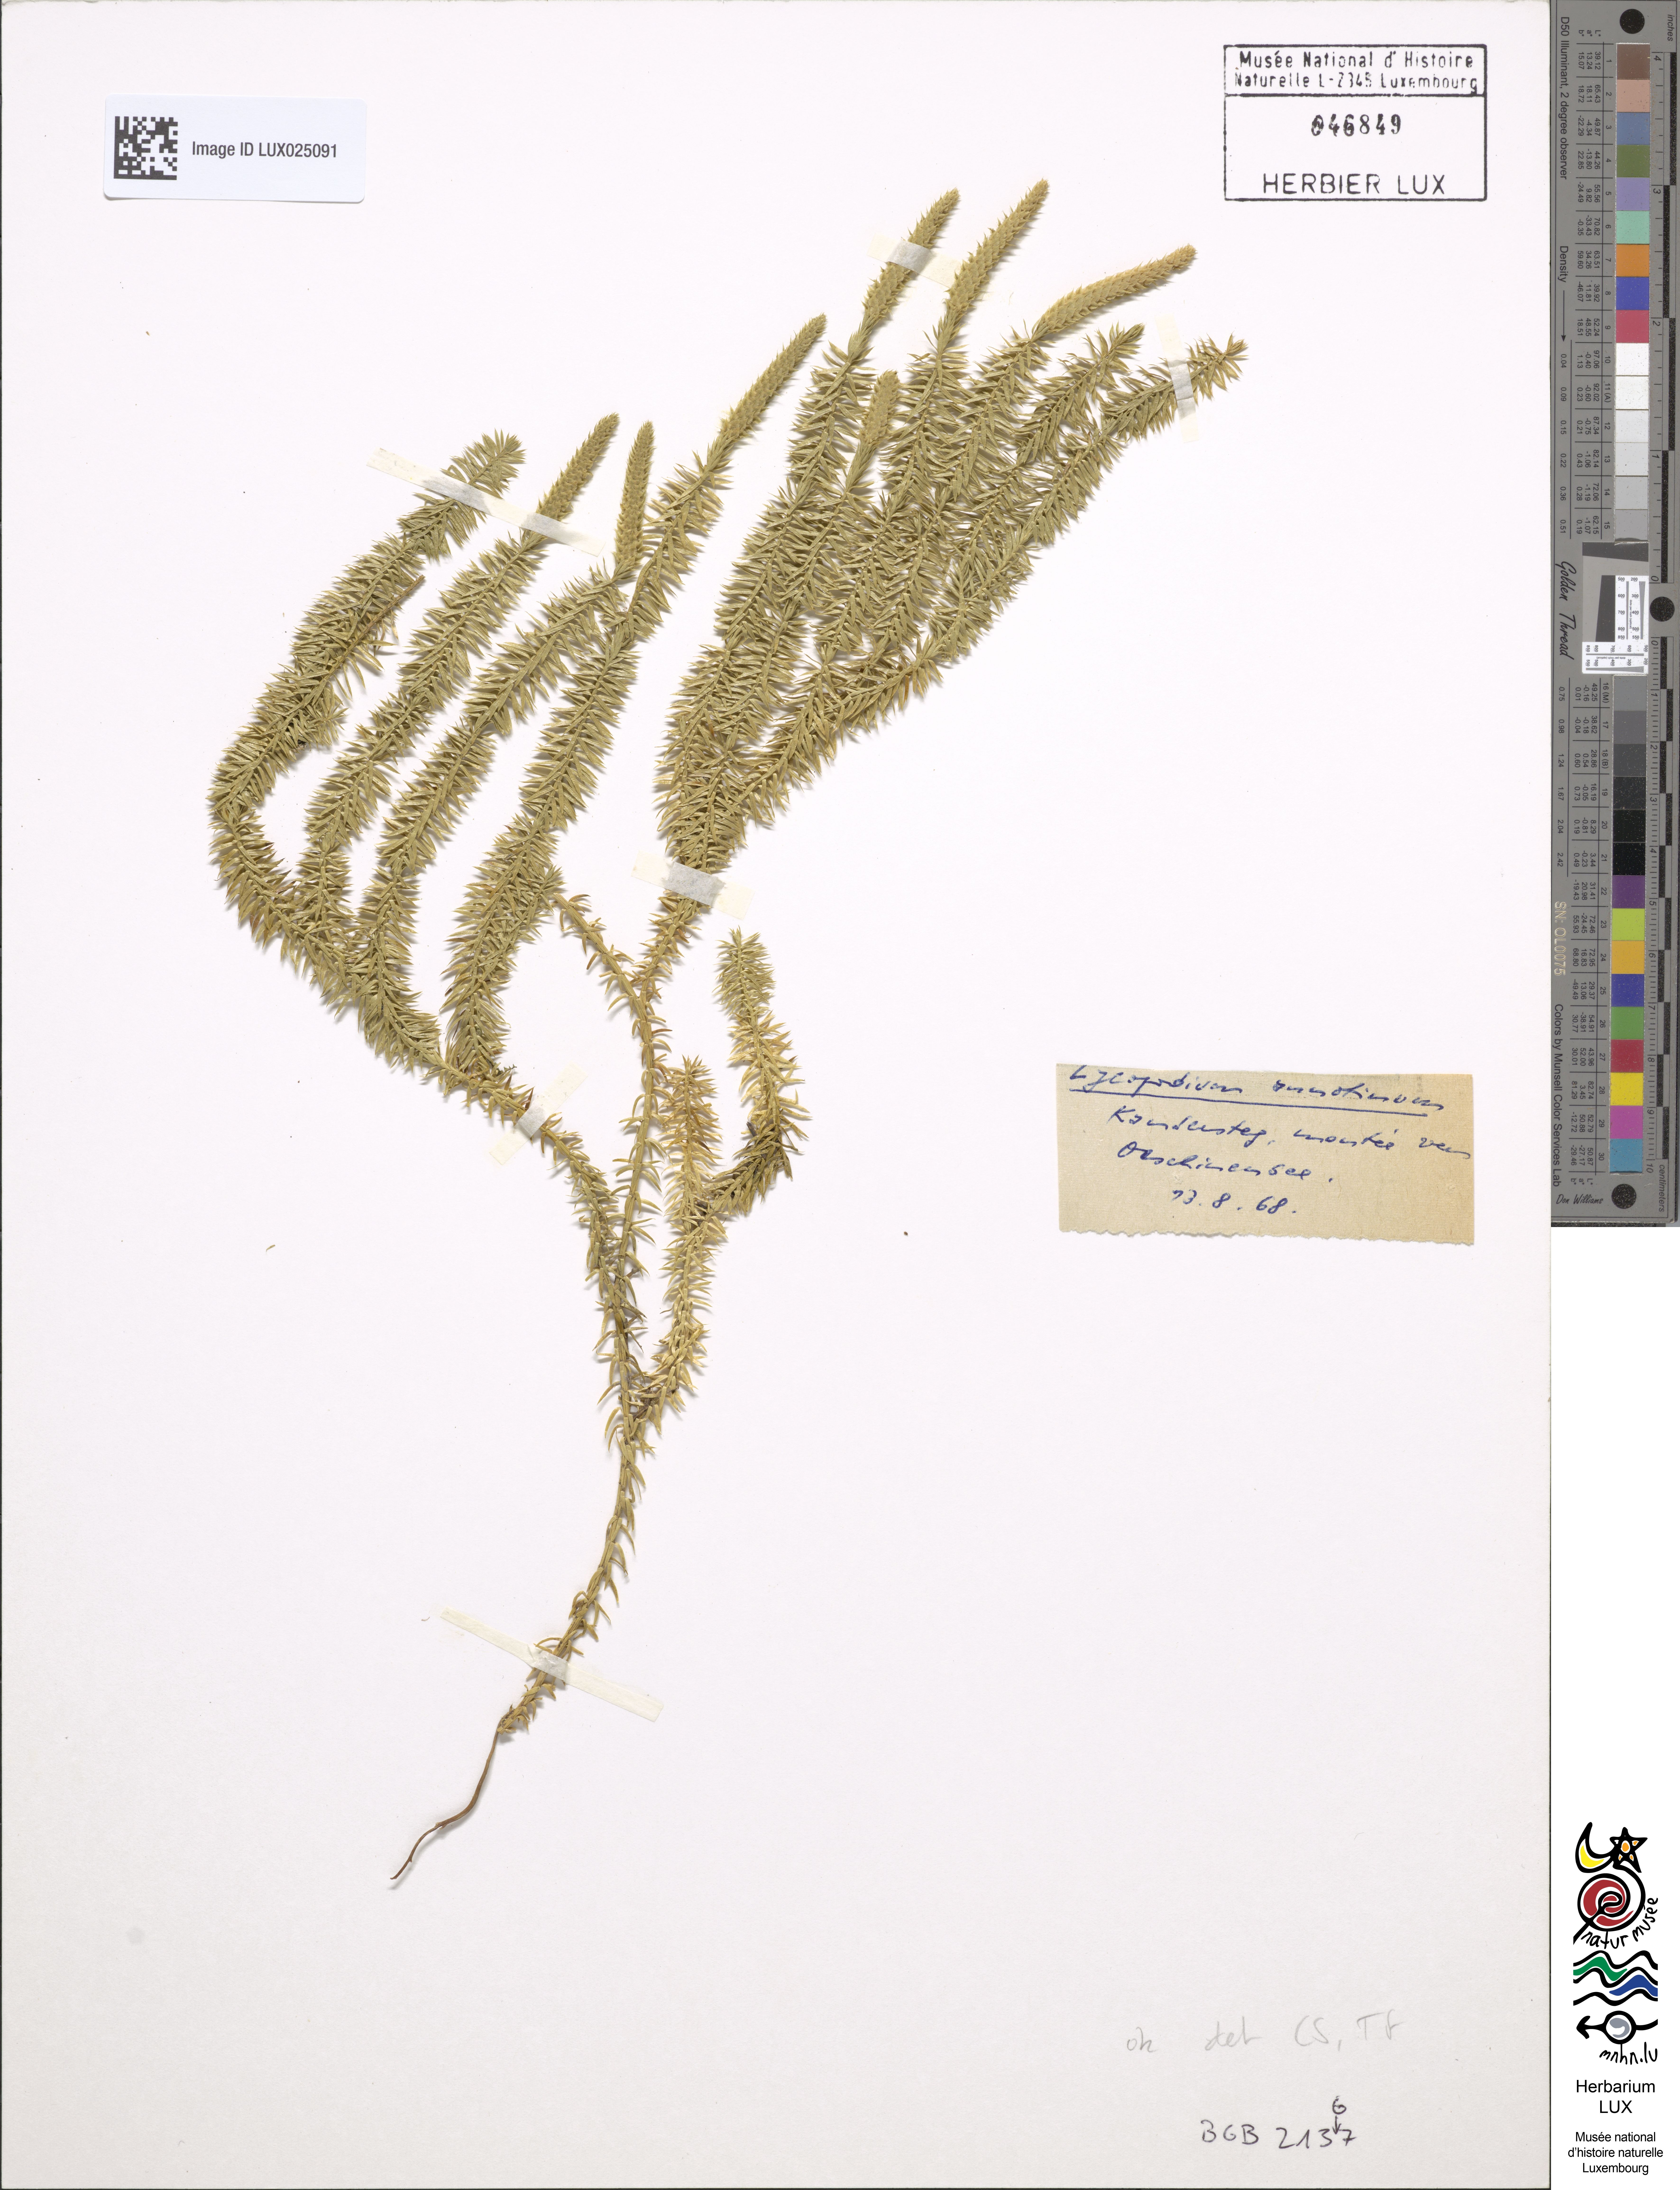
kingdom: Plantae
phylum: Tracheophyta
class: Lycopodiopsida
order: Lycopodiales
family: Lycopodiaceae
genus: Spinulum
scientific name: Spinulum annotinum
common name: Interrupted club-moss
